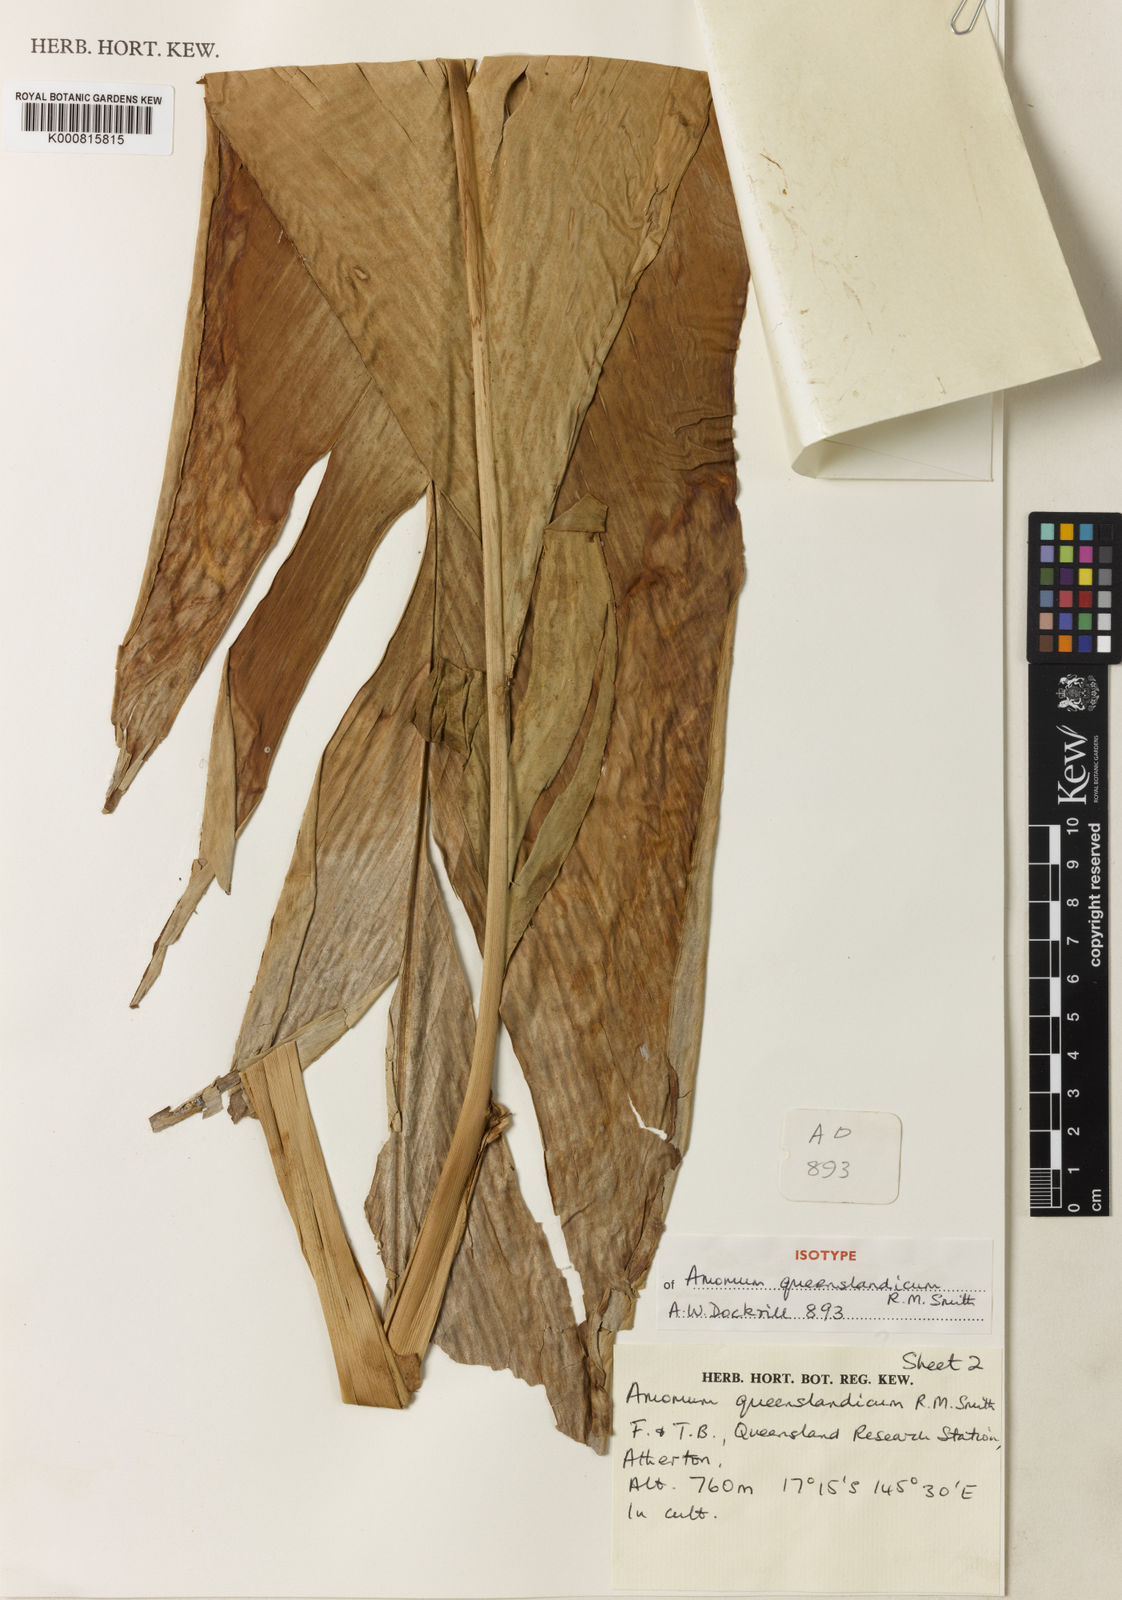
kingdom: Plantae
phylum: Tracheophyta
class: Liliopsida
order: Zingiberales
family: Zingiberaceae
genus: Amomum
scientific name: Amomum queenslandicum
